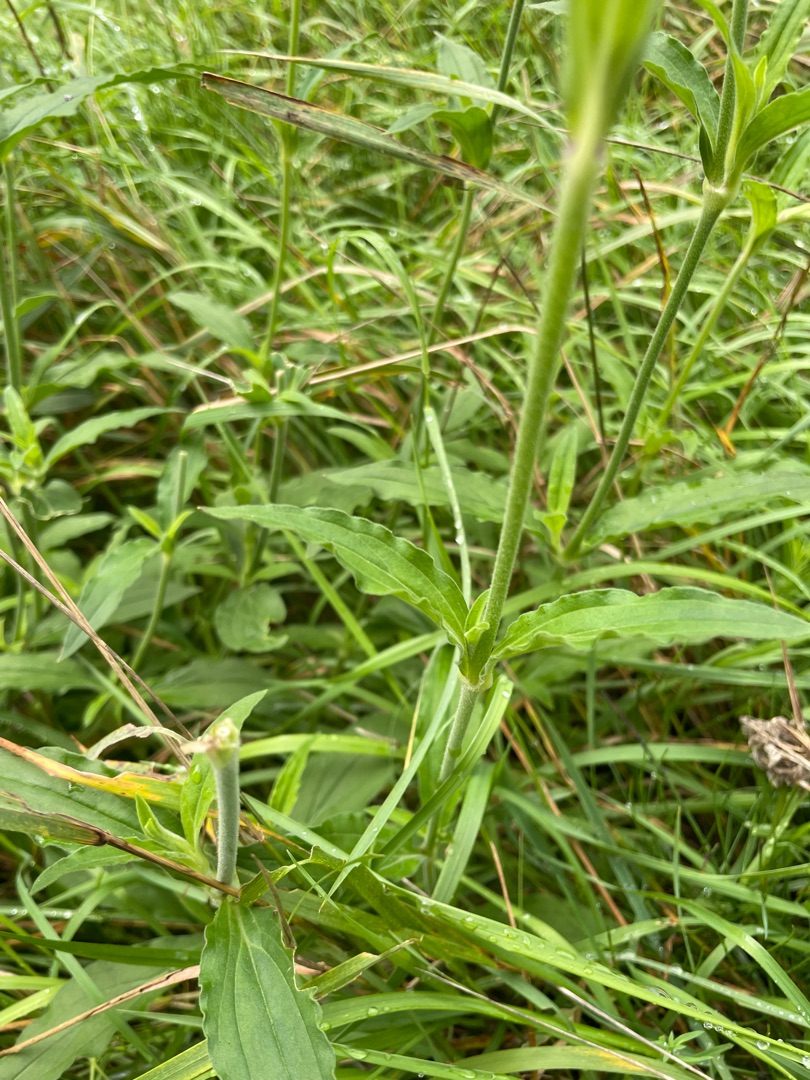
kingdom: Plantae
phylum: Tracheophyta
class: Magnoliopsida
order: Caryophyllales
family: Caryophyllaceae
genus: Silene
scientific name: Silene latifolia
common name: Aftenpragtstjerne
